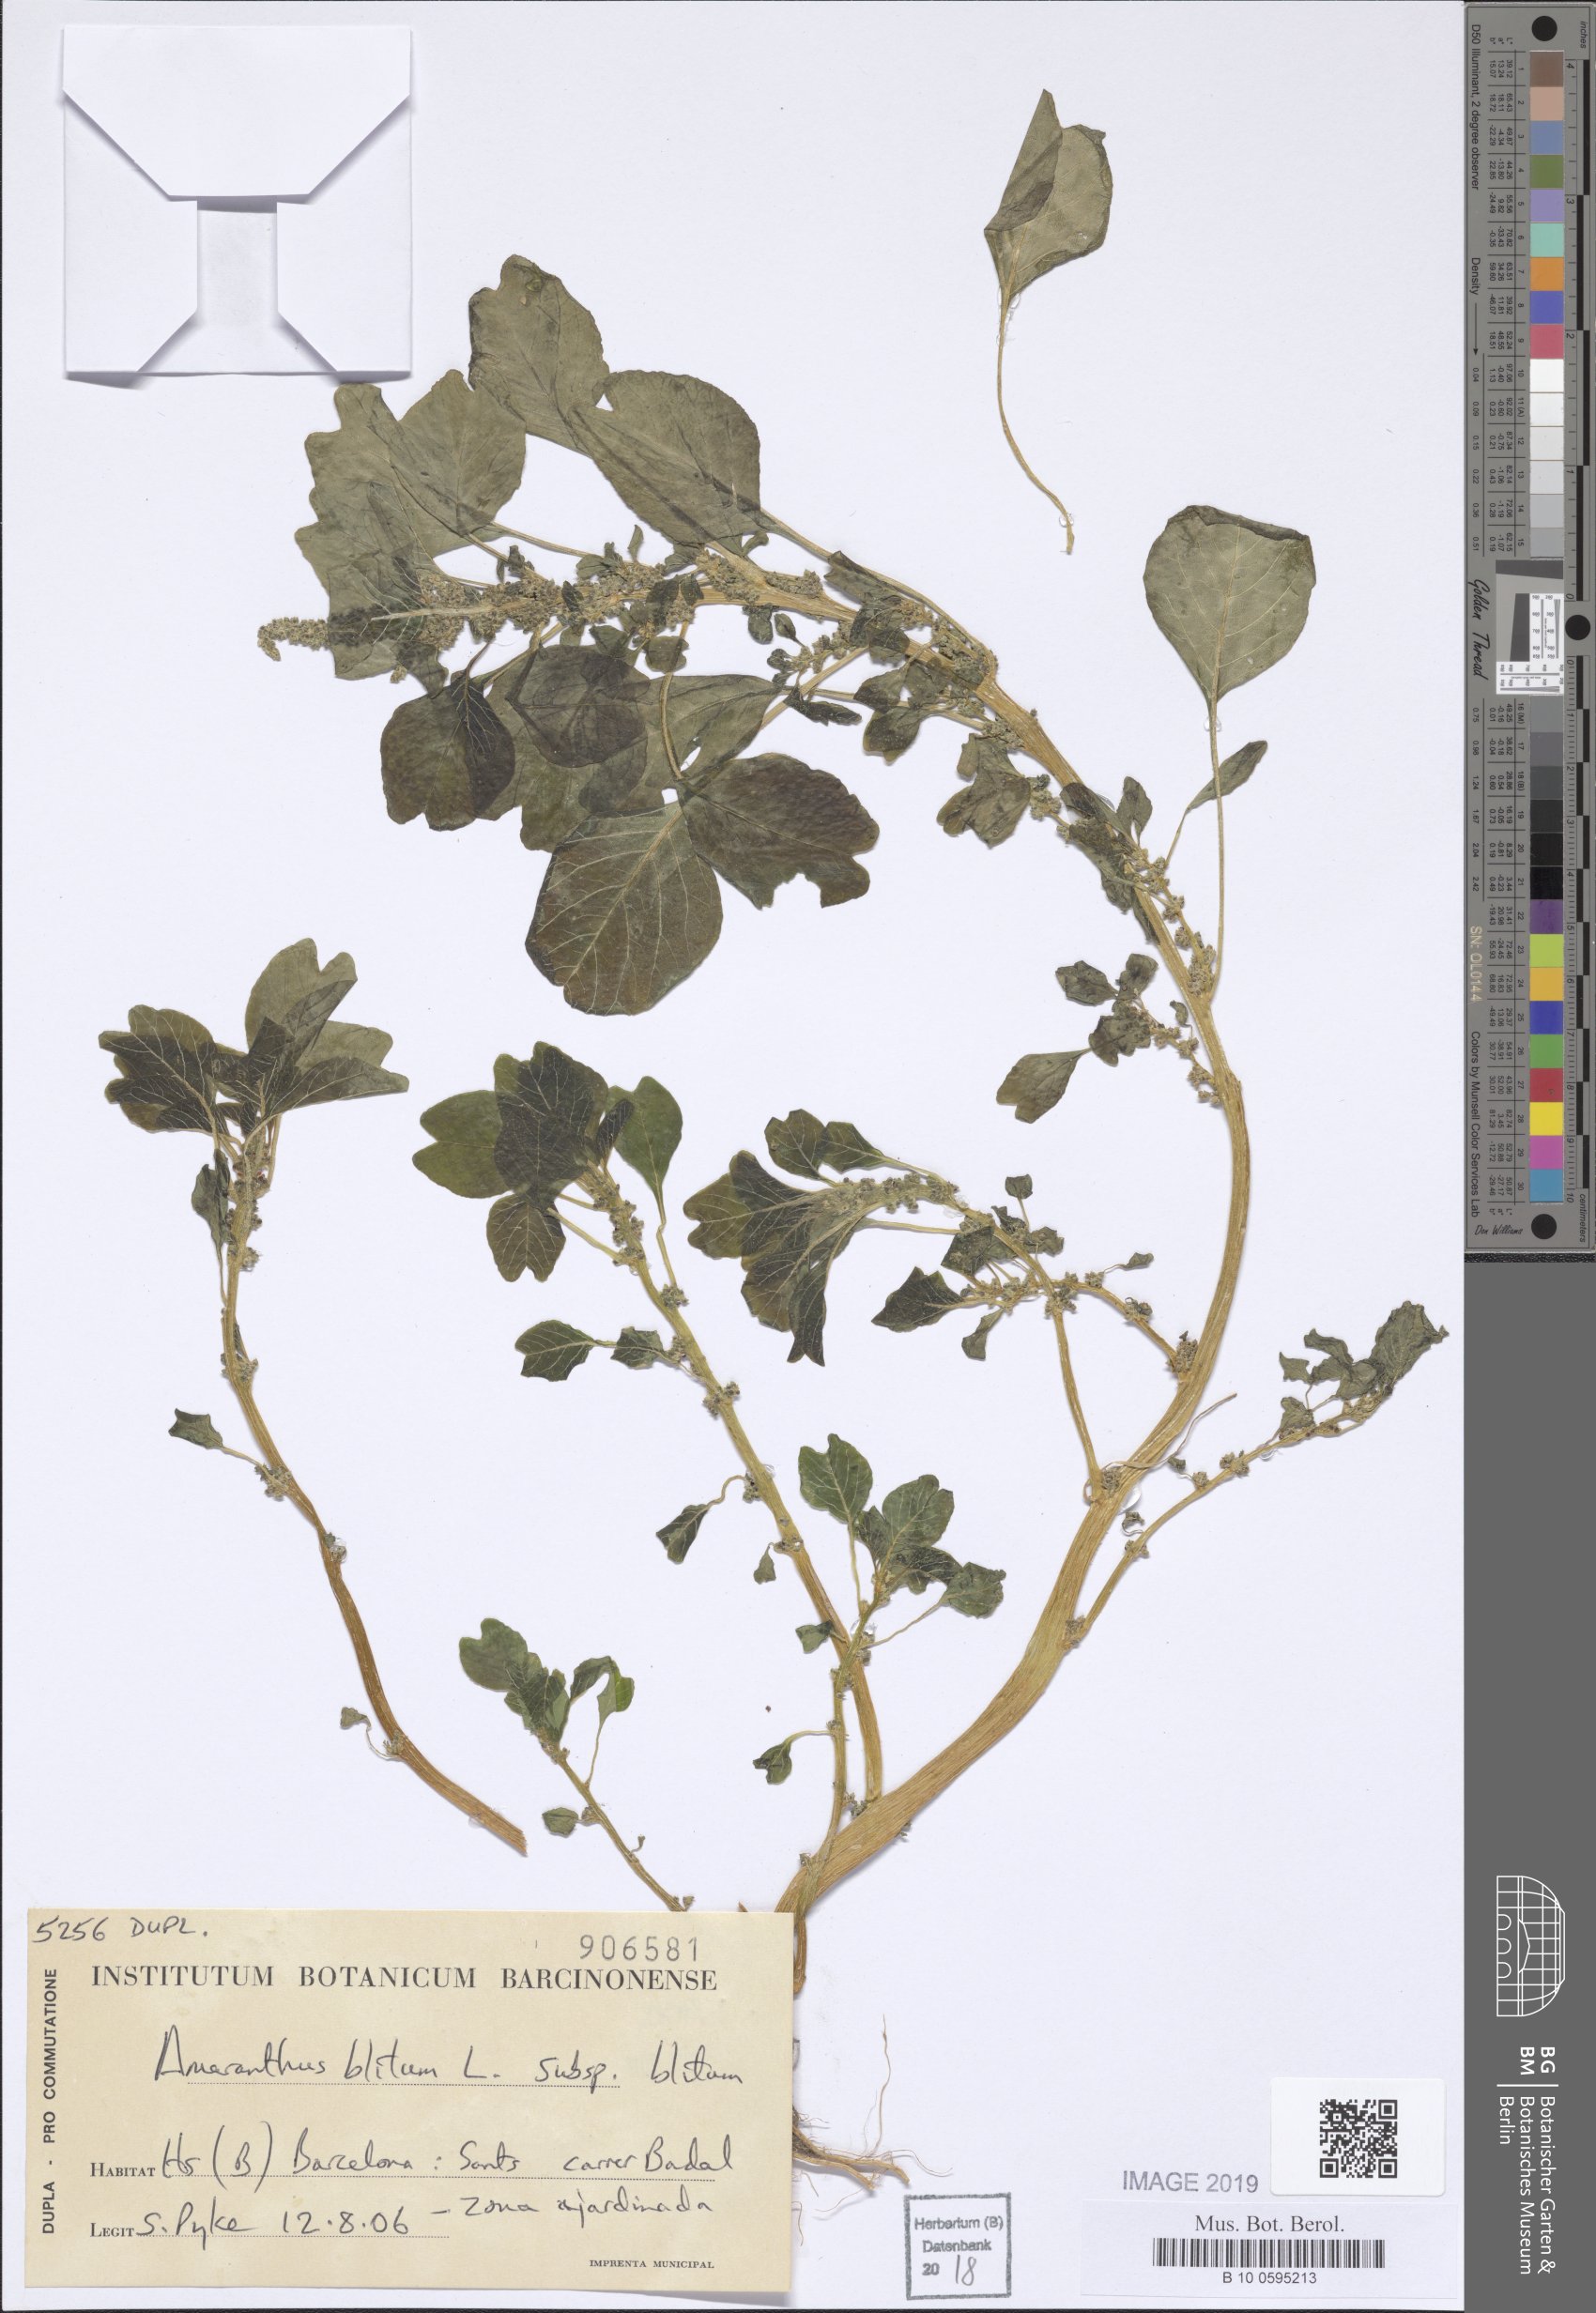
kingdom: Plantae
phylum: Tracheophyta
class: Magnoliopsida
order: Caryophyllales
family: Amaranthaceae
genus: Amaranthus
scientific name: Amaranthus blitum
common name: Purple amaranth
